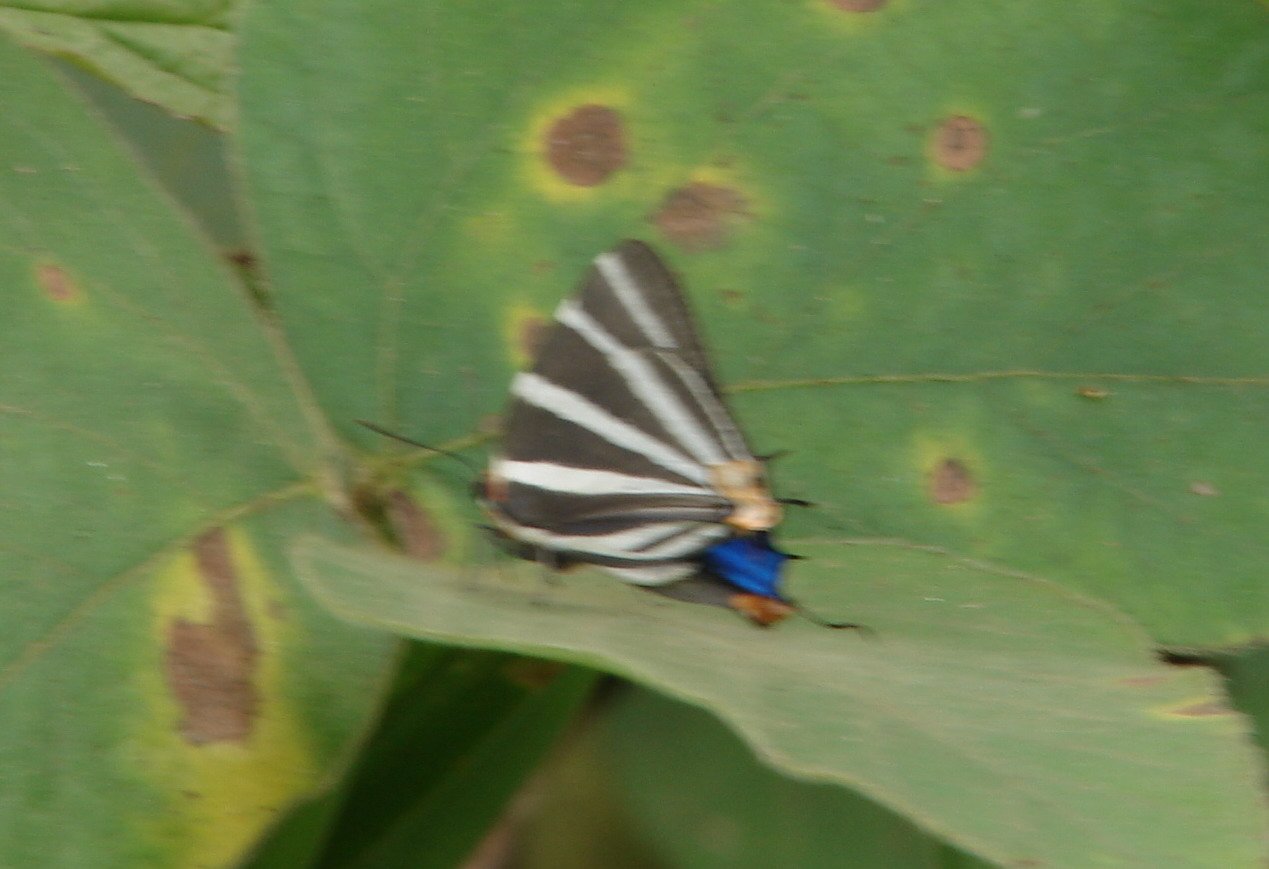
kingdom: Animalia
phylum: Arthropoda
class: Insecta
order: Lepidoptera
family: Lycaenidae
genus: Thecla
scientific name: Thecla bathildis
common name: Zebra-striped Hairstreak
